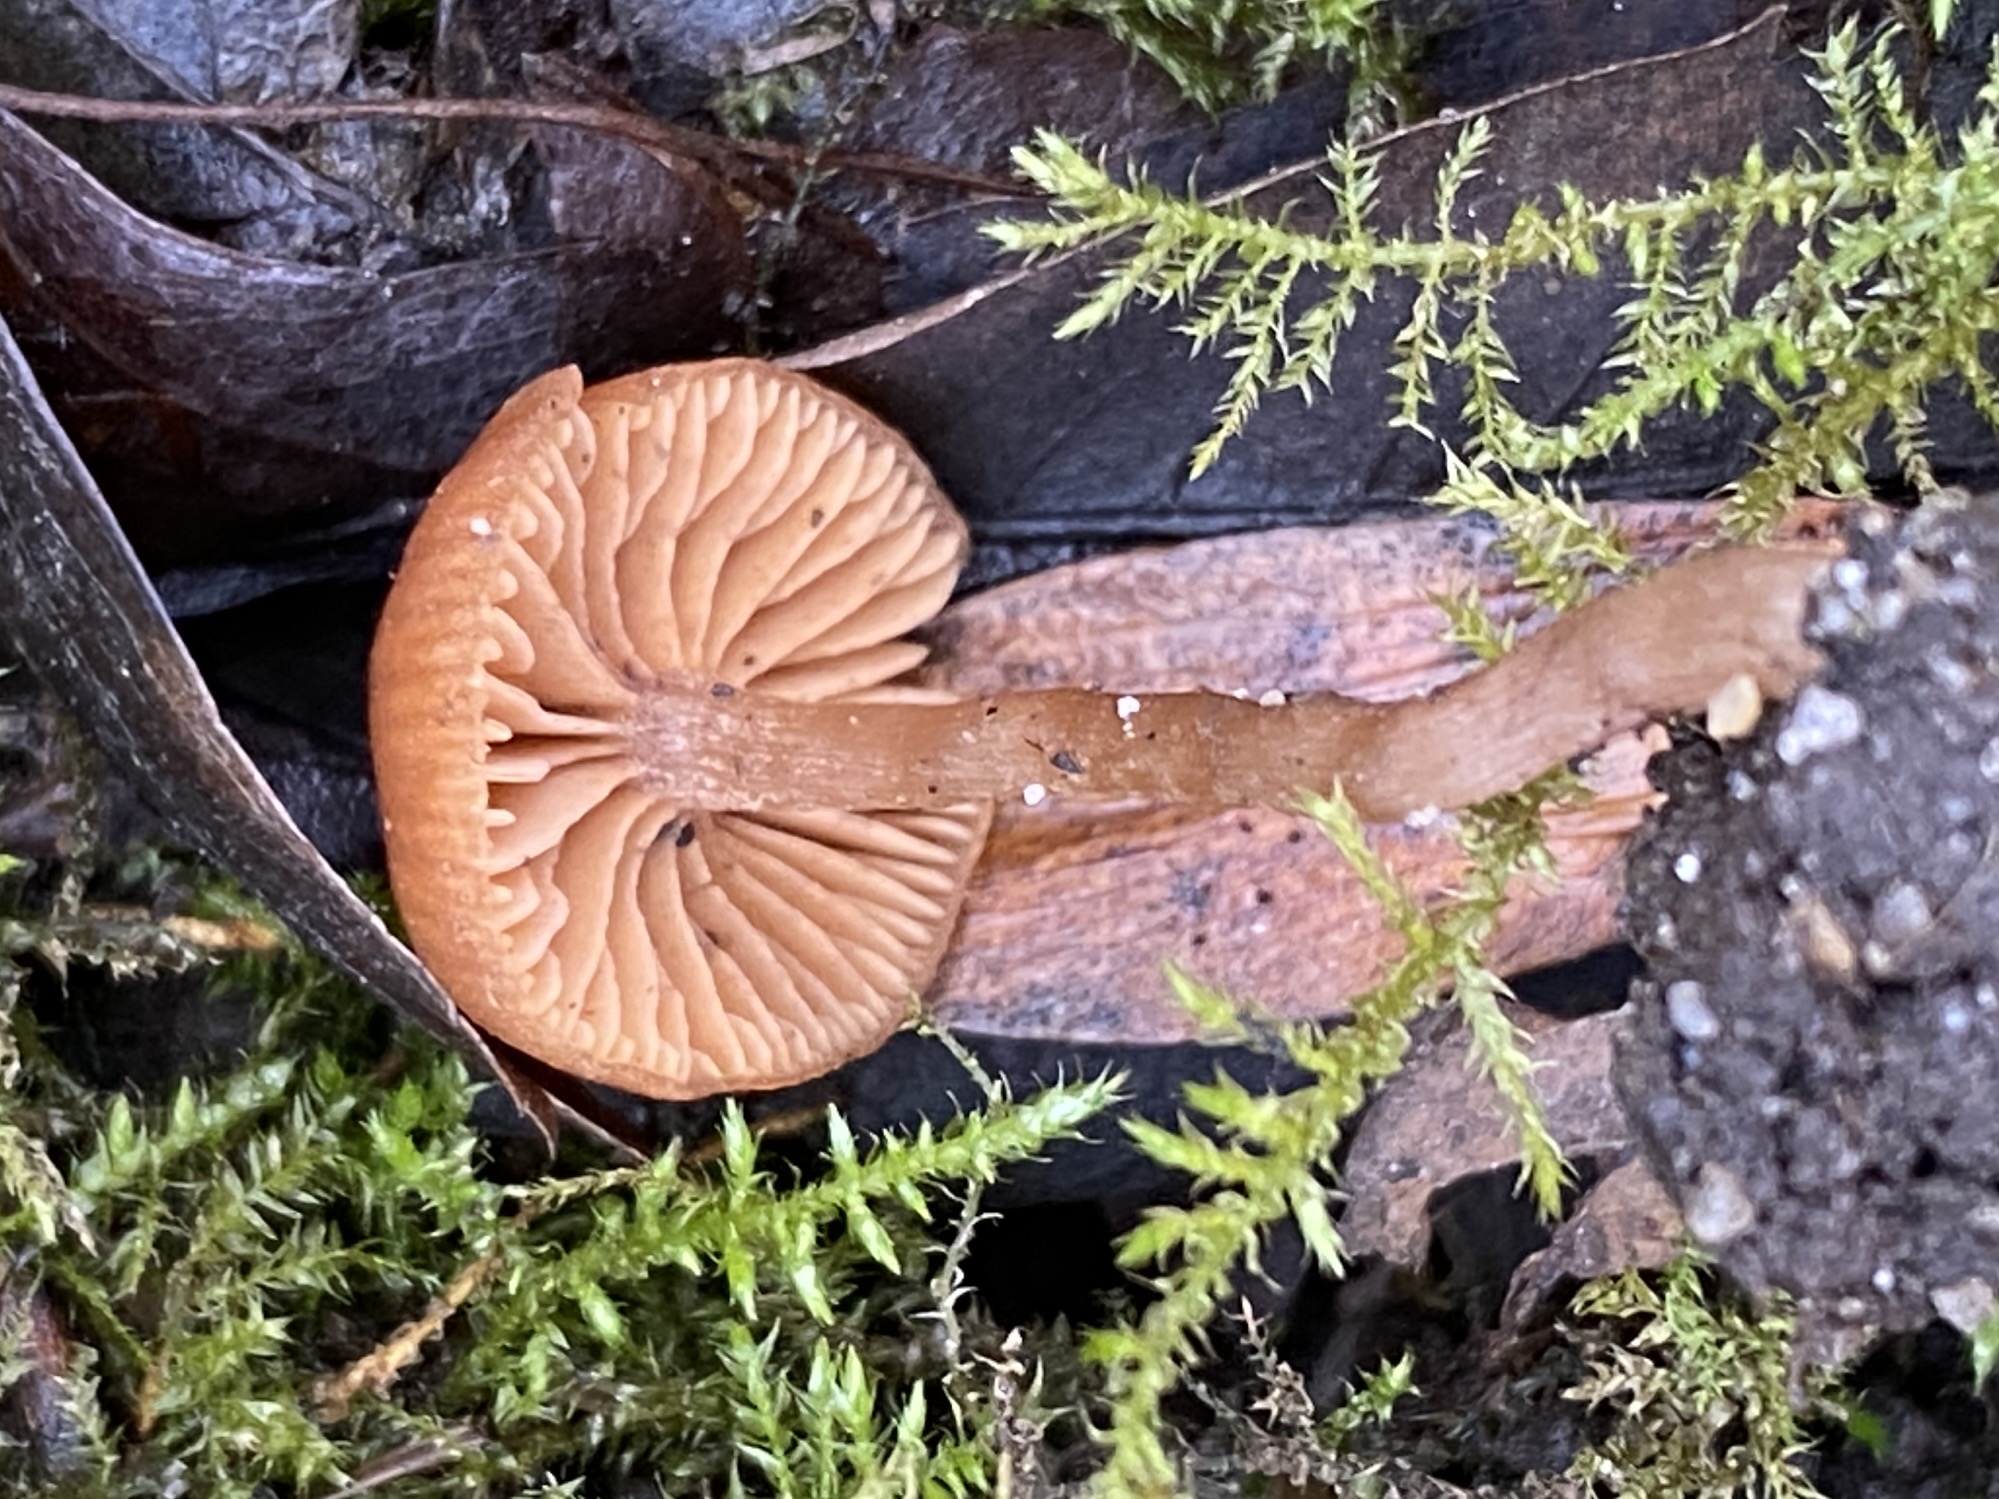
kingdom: Fungi
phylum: Basidiomycota
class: Agaricomycetes
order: Agaricales
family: Tubariaceae
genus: Tubaria
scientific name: Tubaria furfuracea
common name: kliddet fnughat
